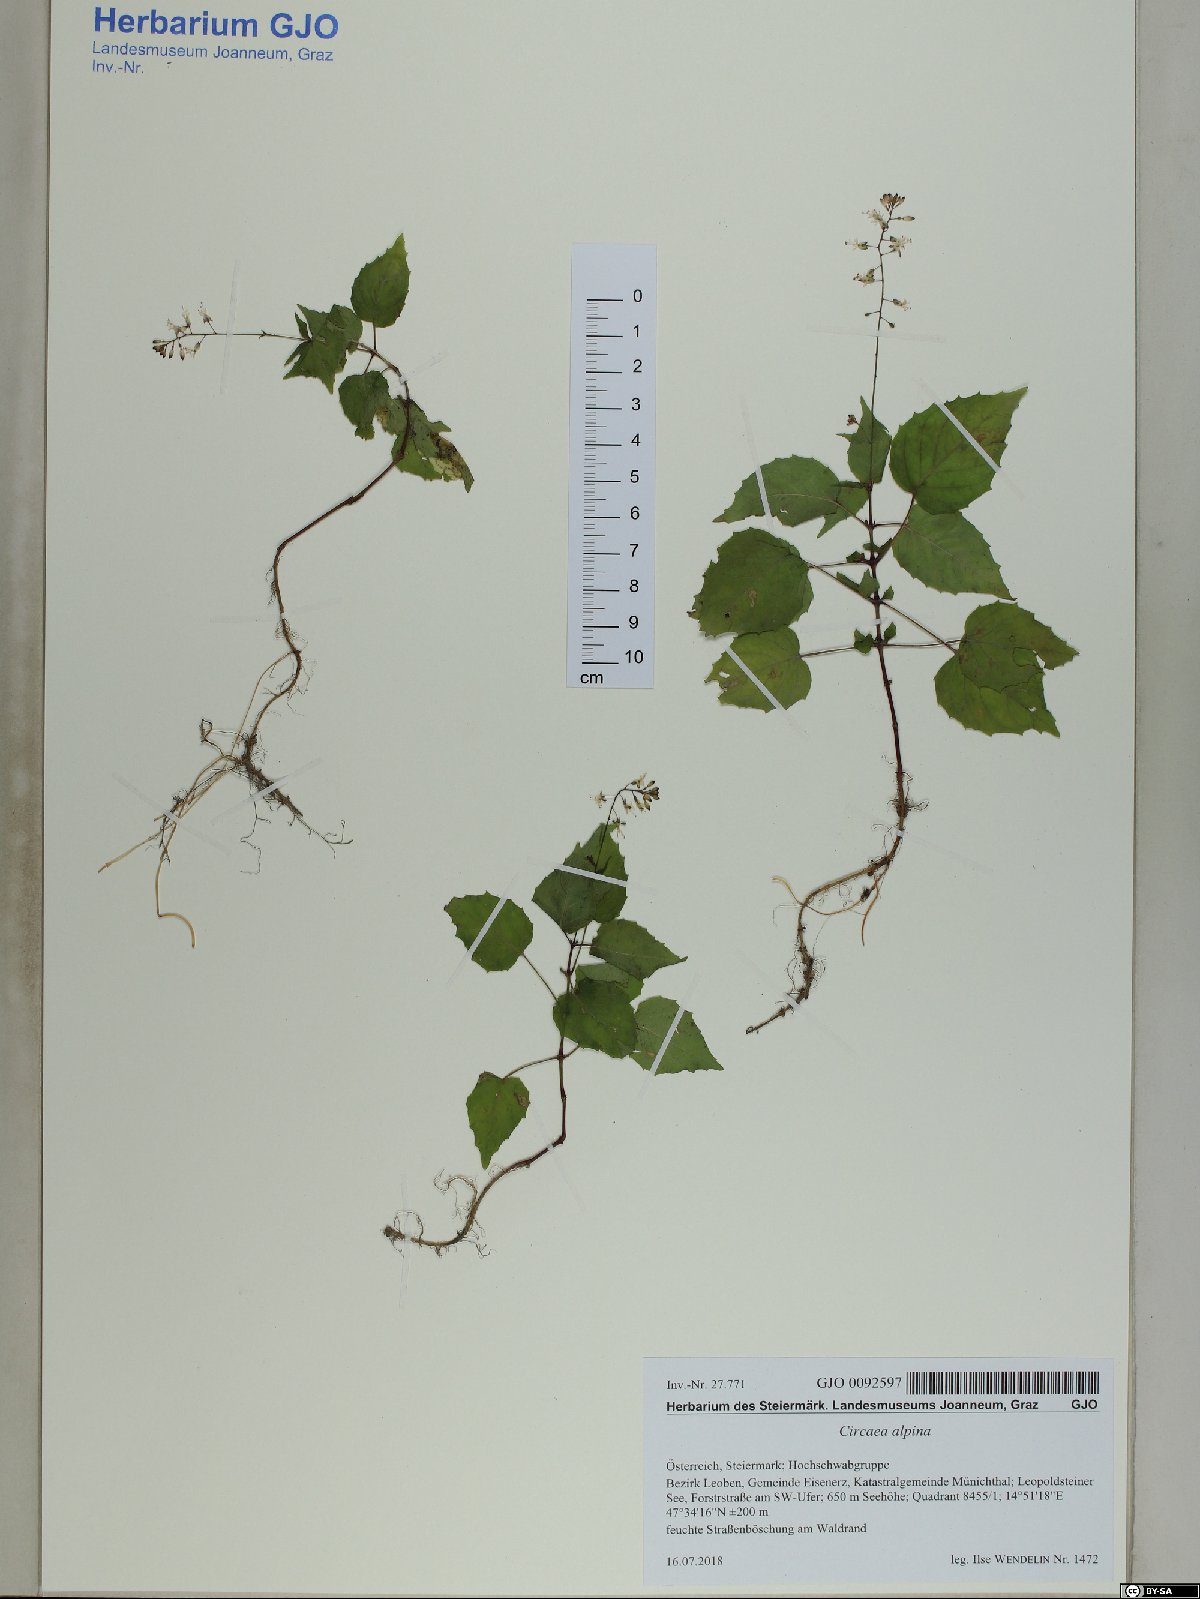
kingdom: Plantae
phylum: Tracheophyta
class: Magnoliopsida
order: Myrtales
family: Onagraceae
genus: Circaea
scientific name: Circaea alpina
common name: Alpine enchanter's-nightshade
